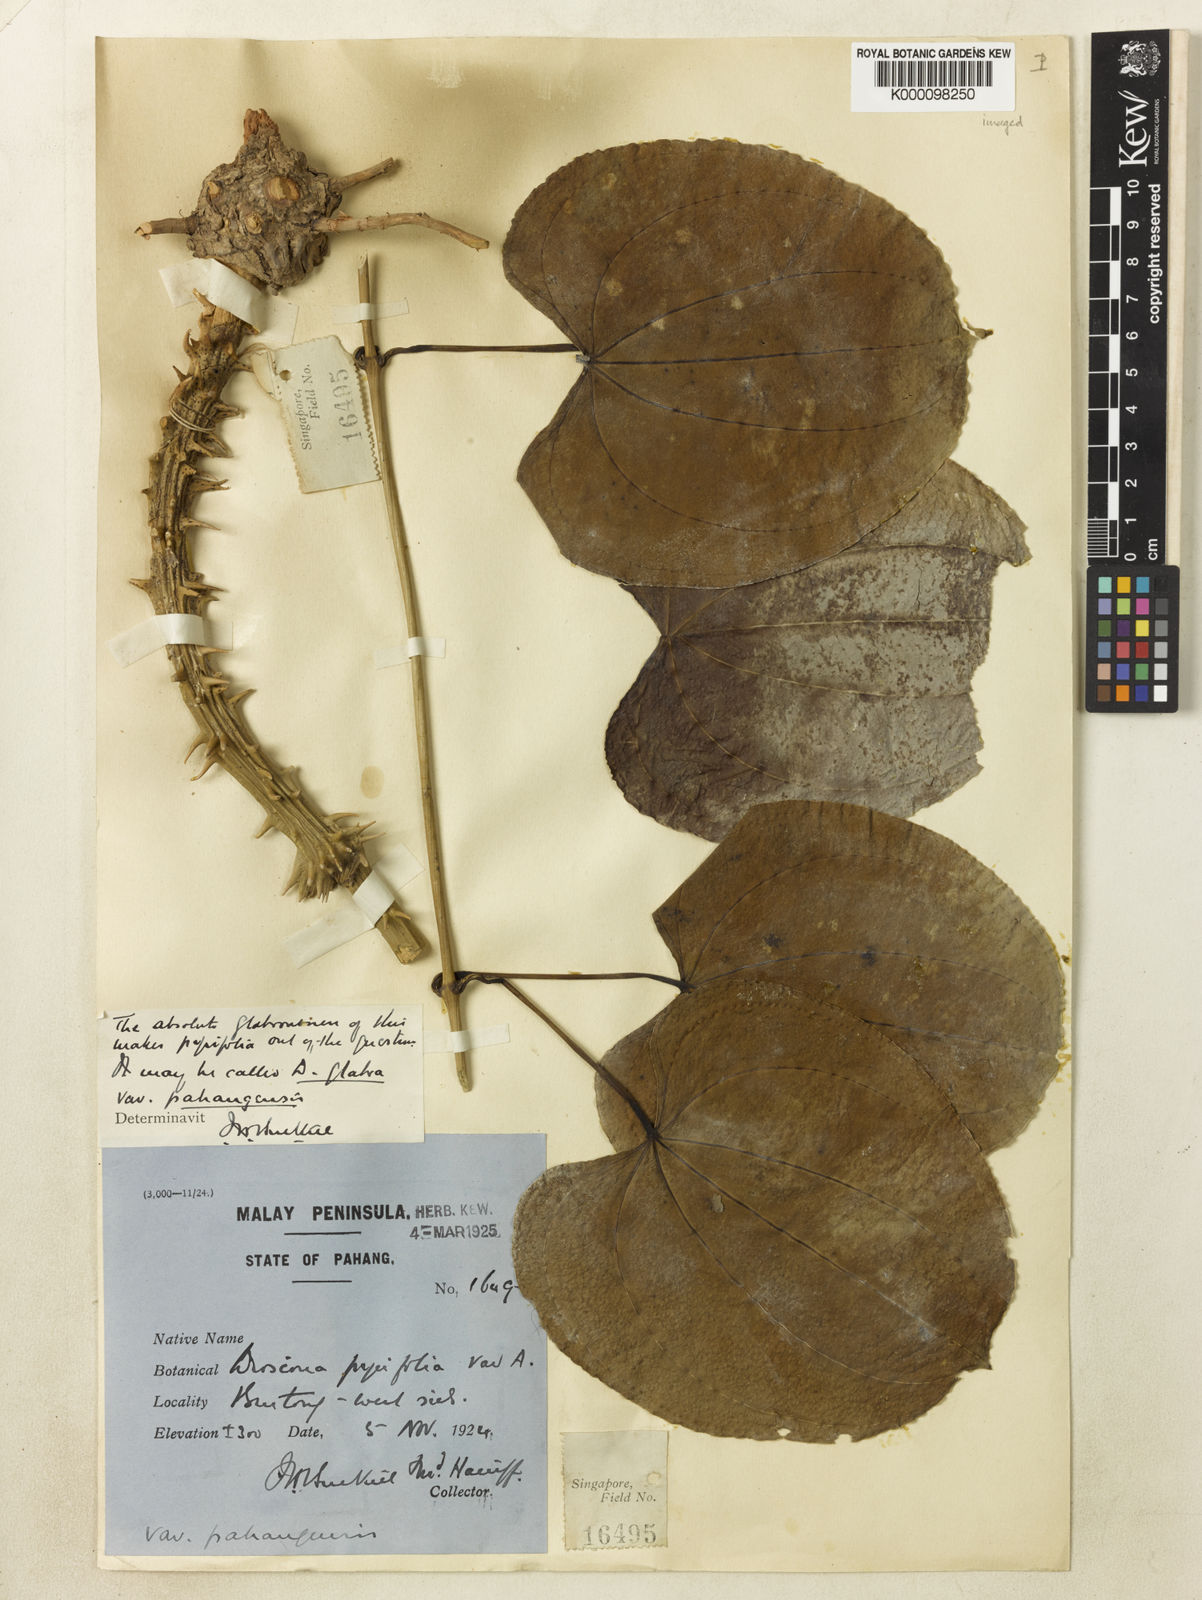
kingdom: Plantae
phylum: Tracheophyta
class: Liliopsida
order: Dioscoreales
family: Dioscoreaceae
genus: Dioscorea
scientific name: Dioscorea glabra
